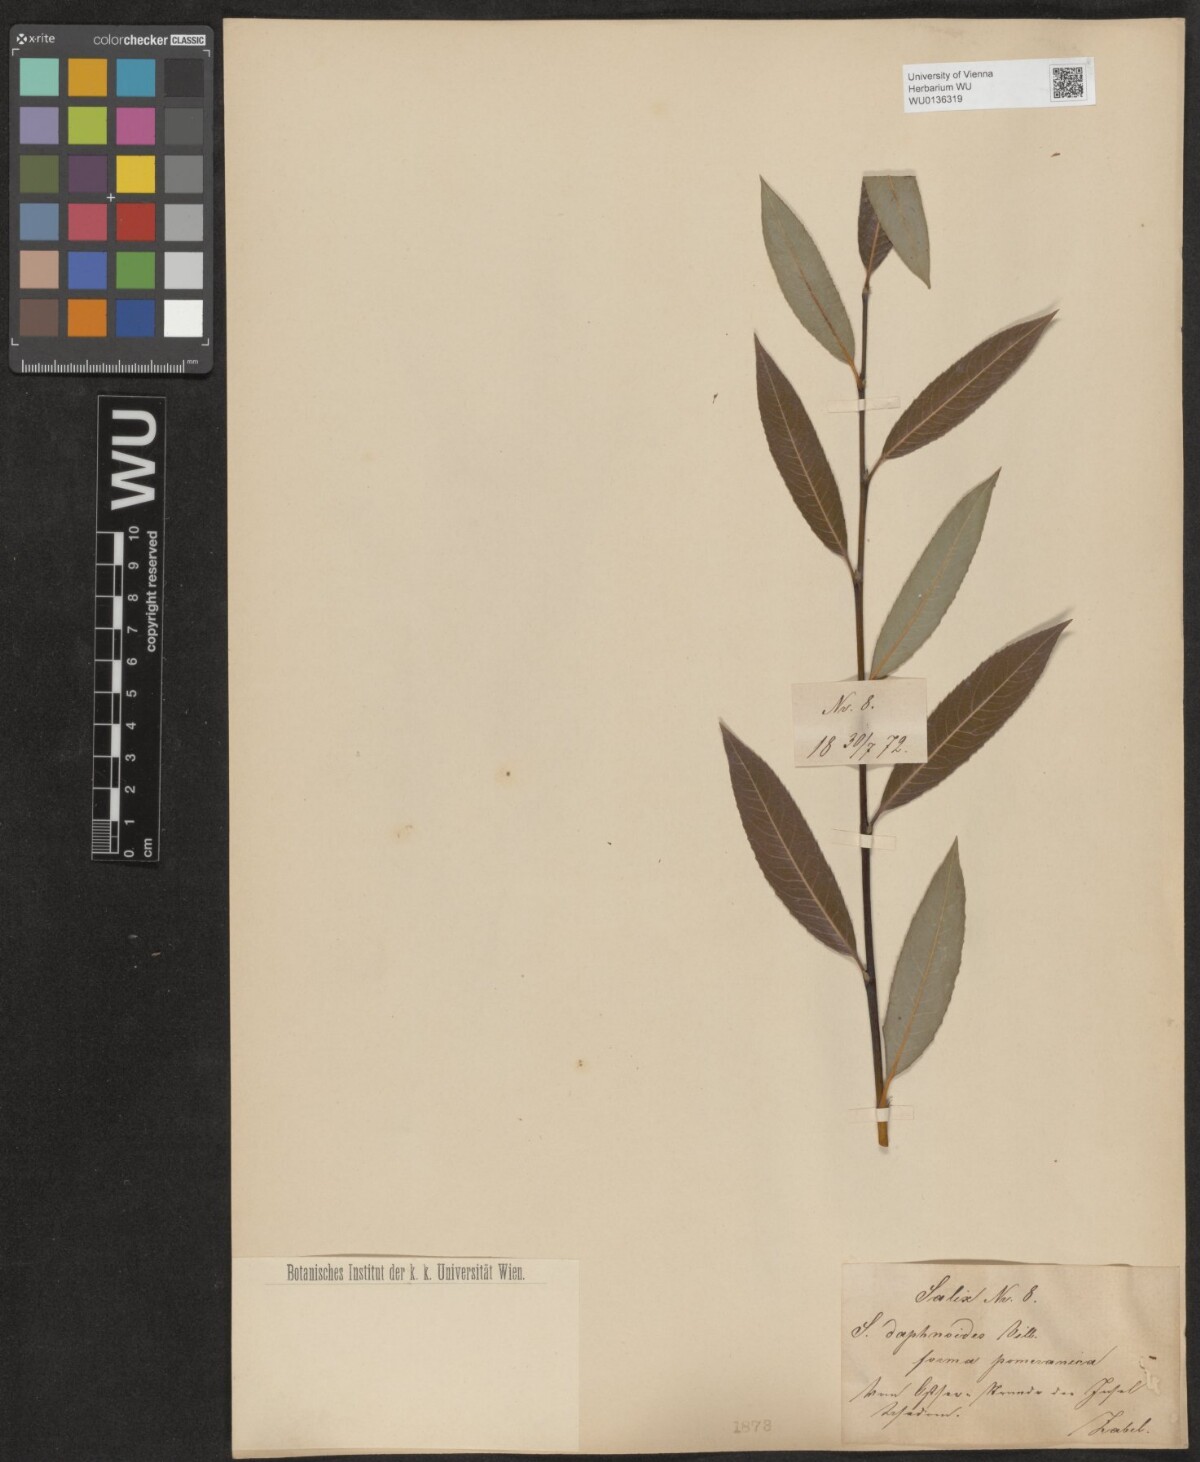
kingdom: Plantae
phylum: Tracheophyta
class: Magnoliopsida
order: Malpighiales
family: Salicaceae
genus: Salix
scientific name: Salix daphnoides
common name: European violet-willow
